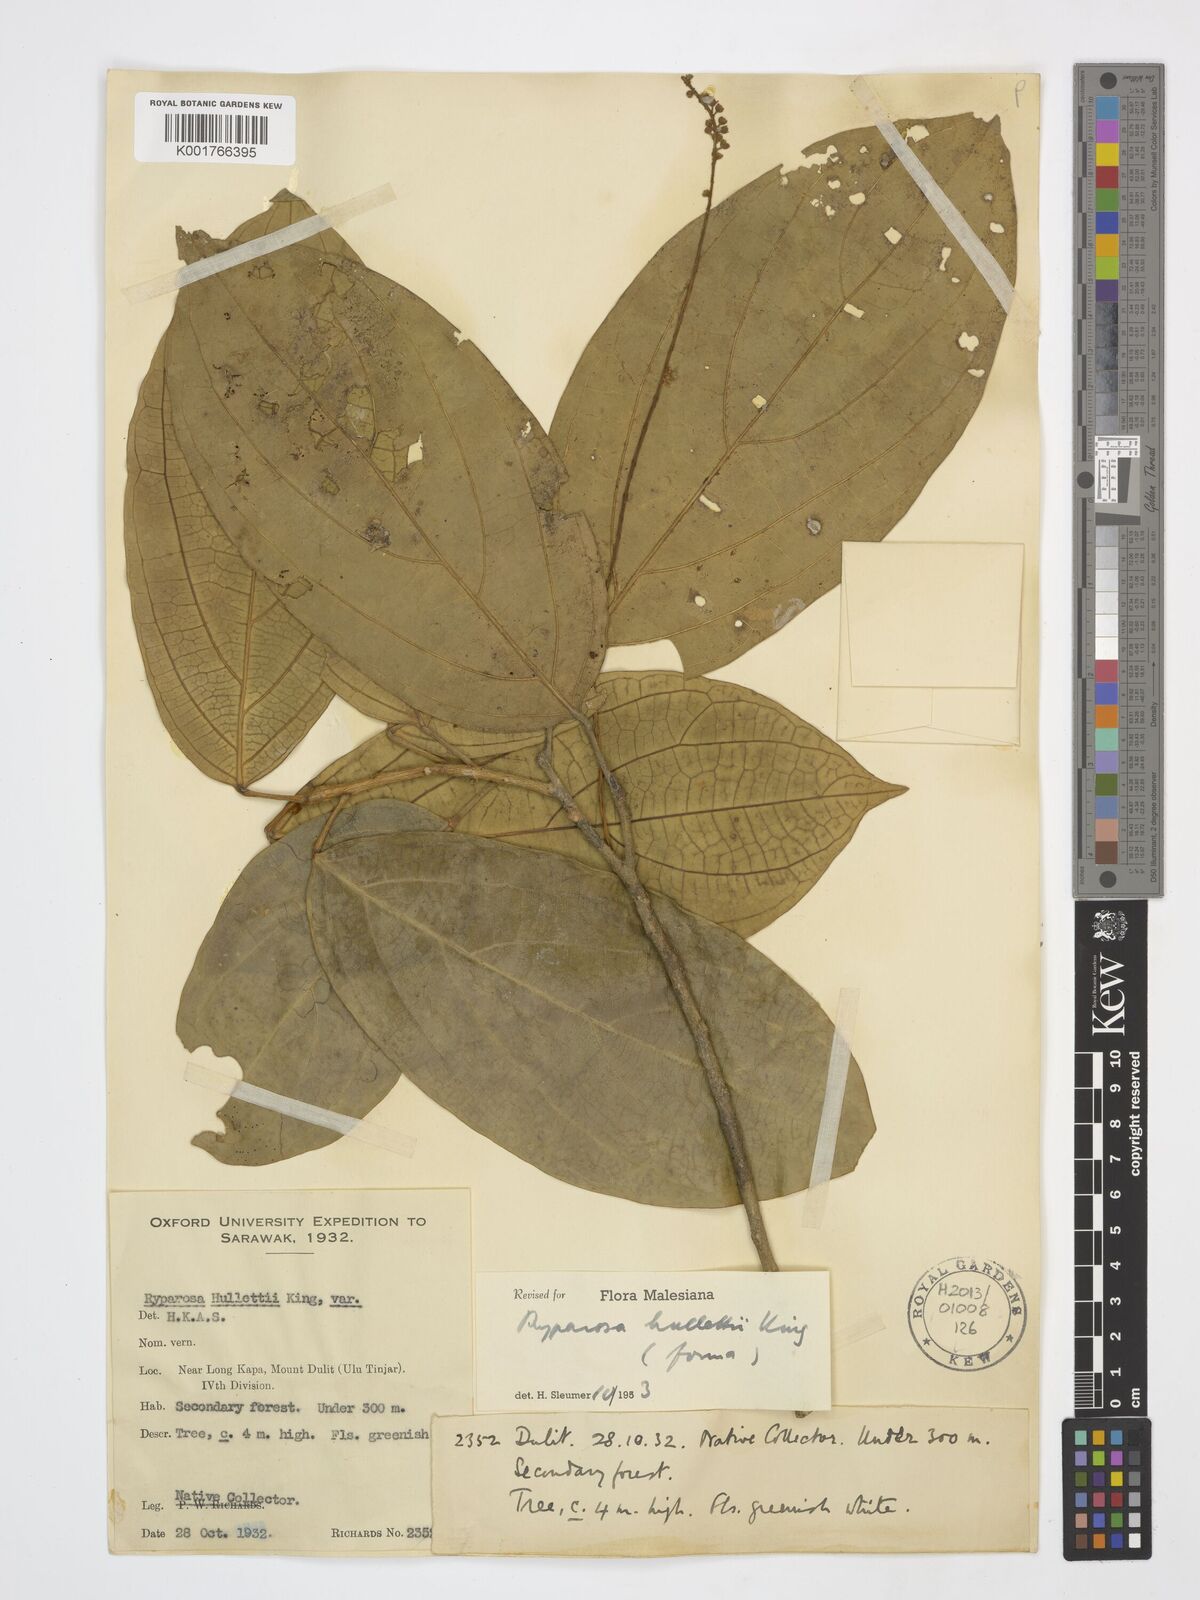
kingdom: Plantae
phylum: Tracheophyta
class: Magnoliopsida
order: Malpighiales
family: Achariaceae
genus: Ryparosa
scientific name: Ryparosa hullettii
